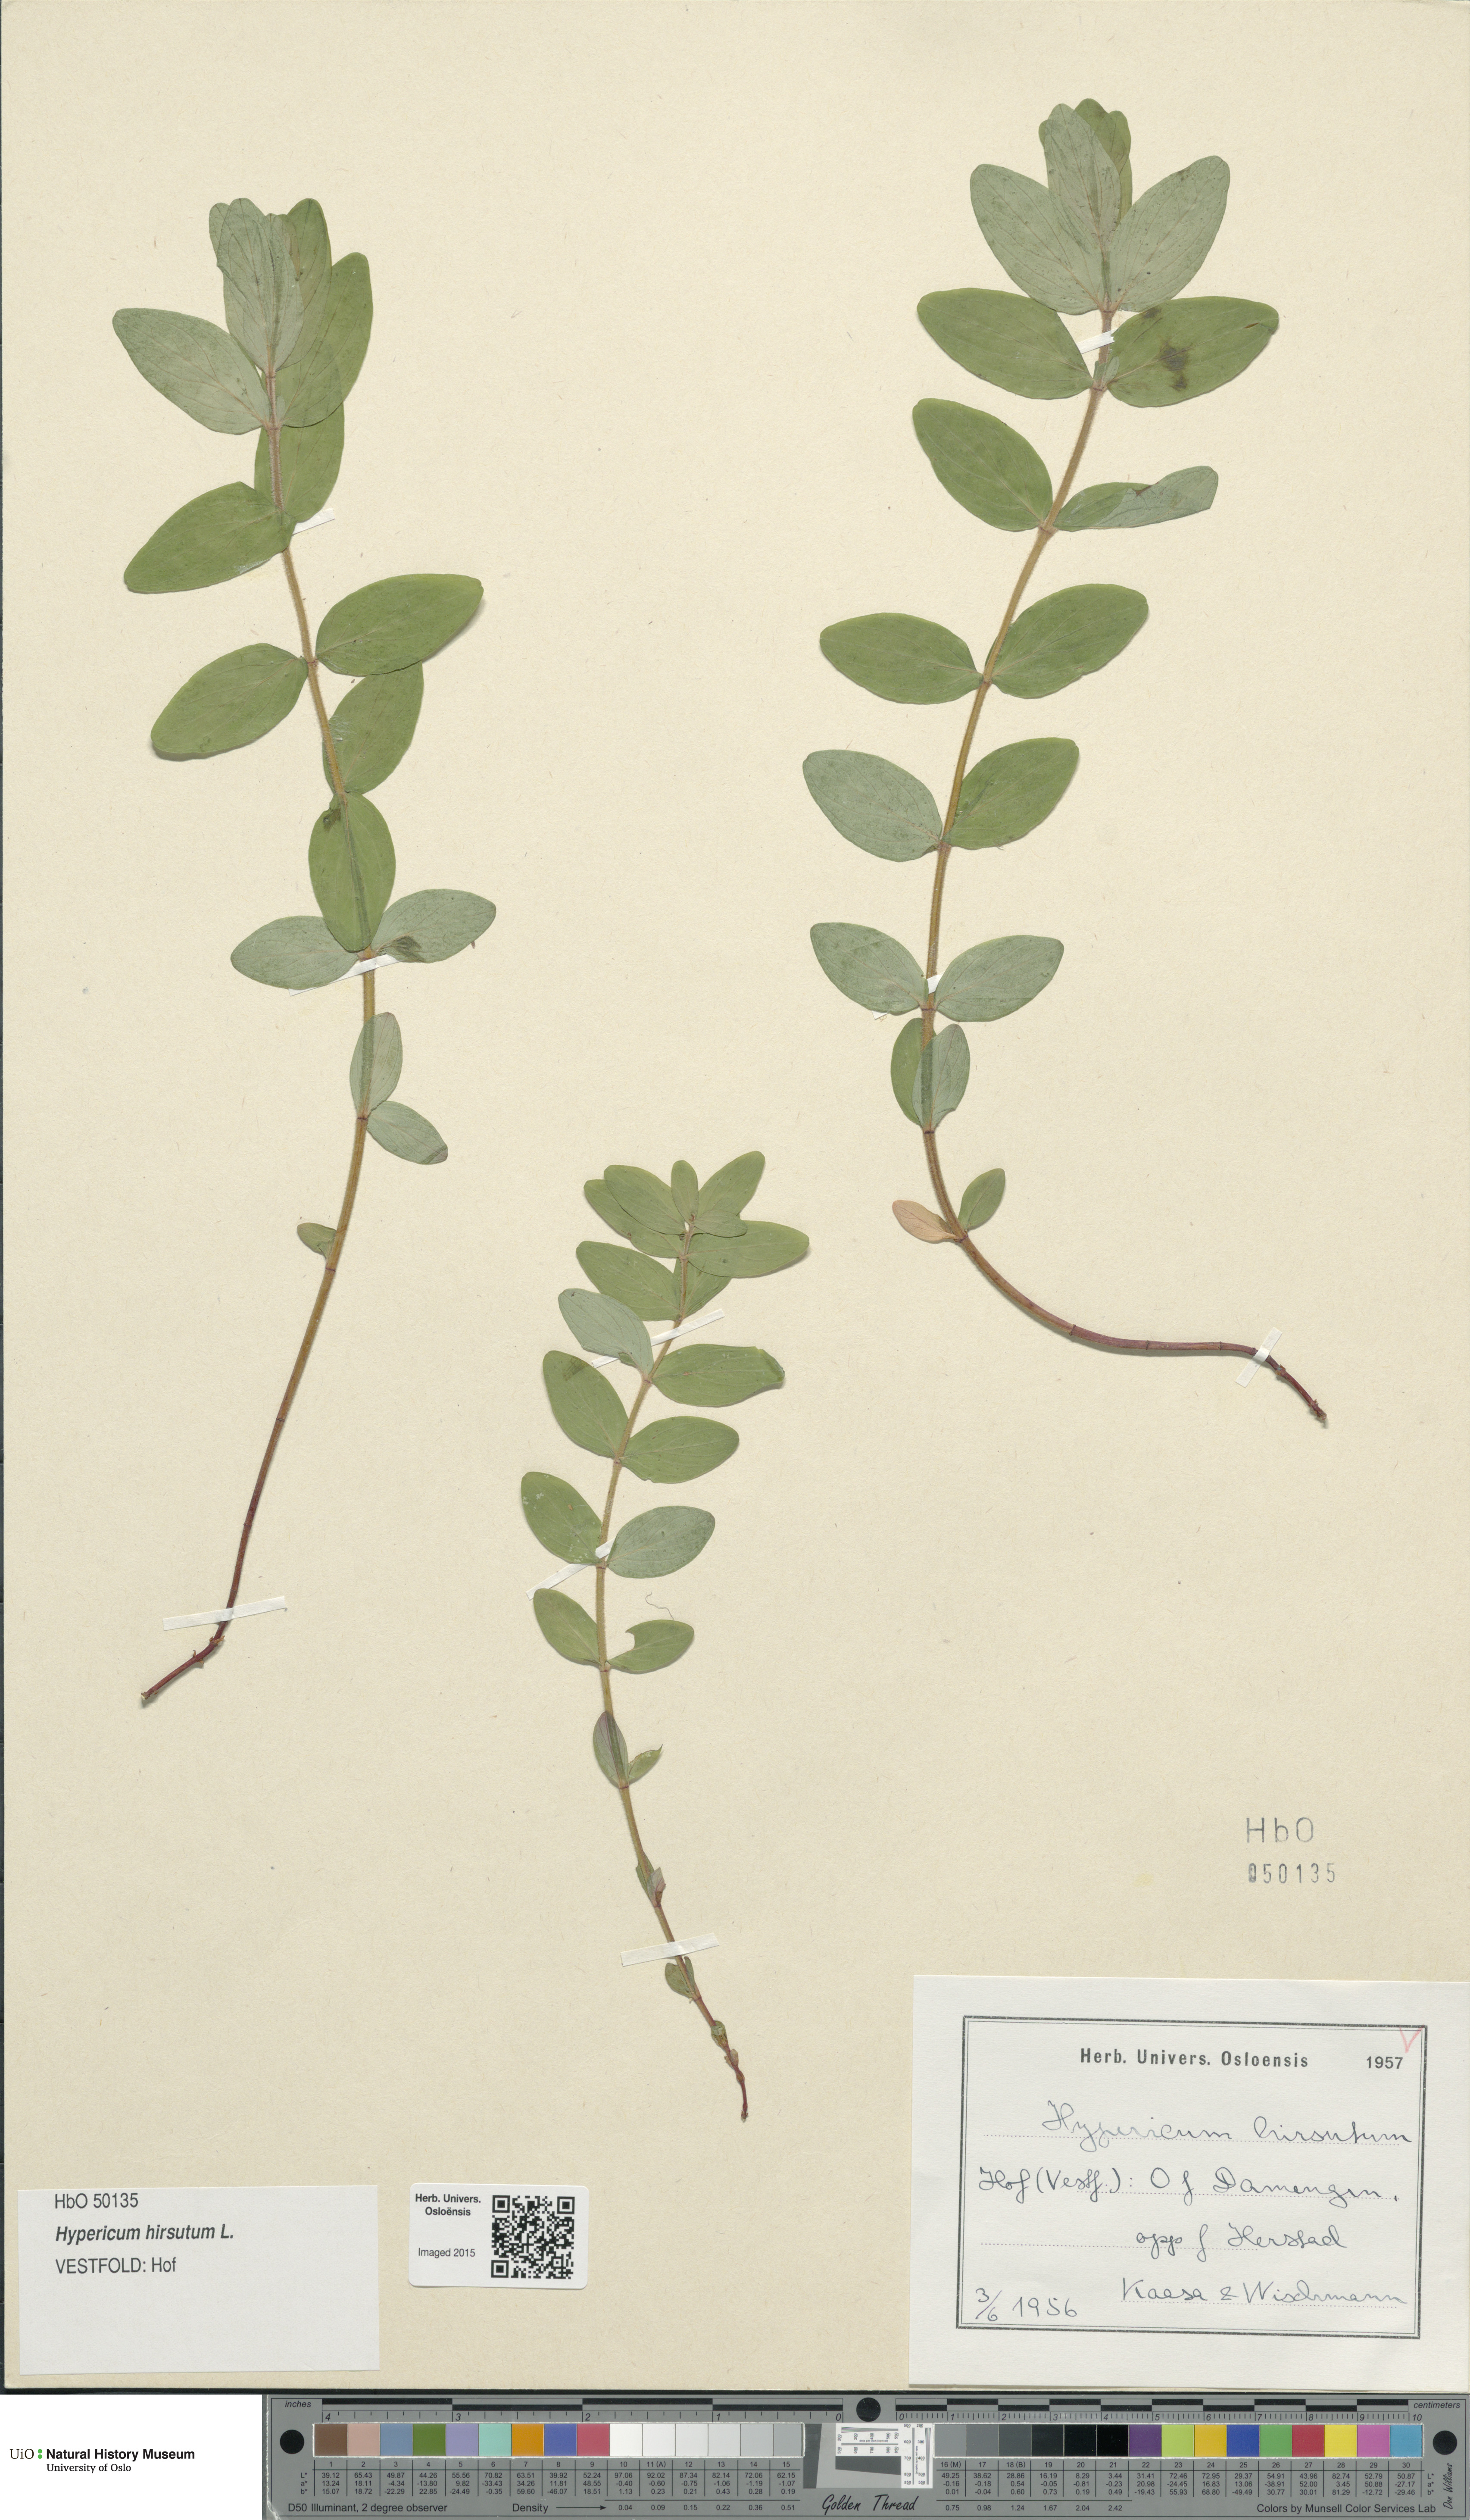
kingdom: Plantae
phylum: Tracheophyta
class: Magnoliopsida
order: Malpighiales
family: Hypericaceae
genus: Hypericum
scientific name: Hypericum hirsutum
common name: Hairy st. john's-wort
